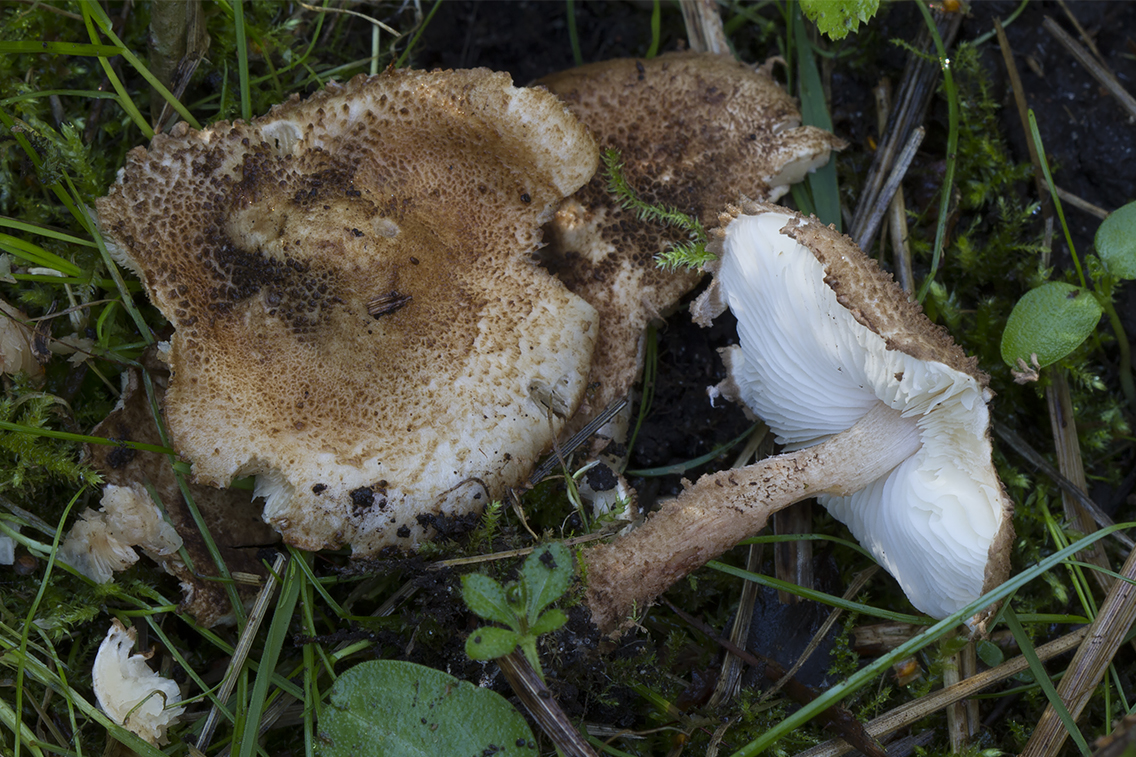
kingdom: Fungi
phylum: Basidiomycota
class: Agaricomycetes
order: Agaricales
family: Agaricaceae
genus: Echinoderma
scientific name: Echinoderma jacobi
